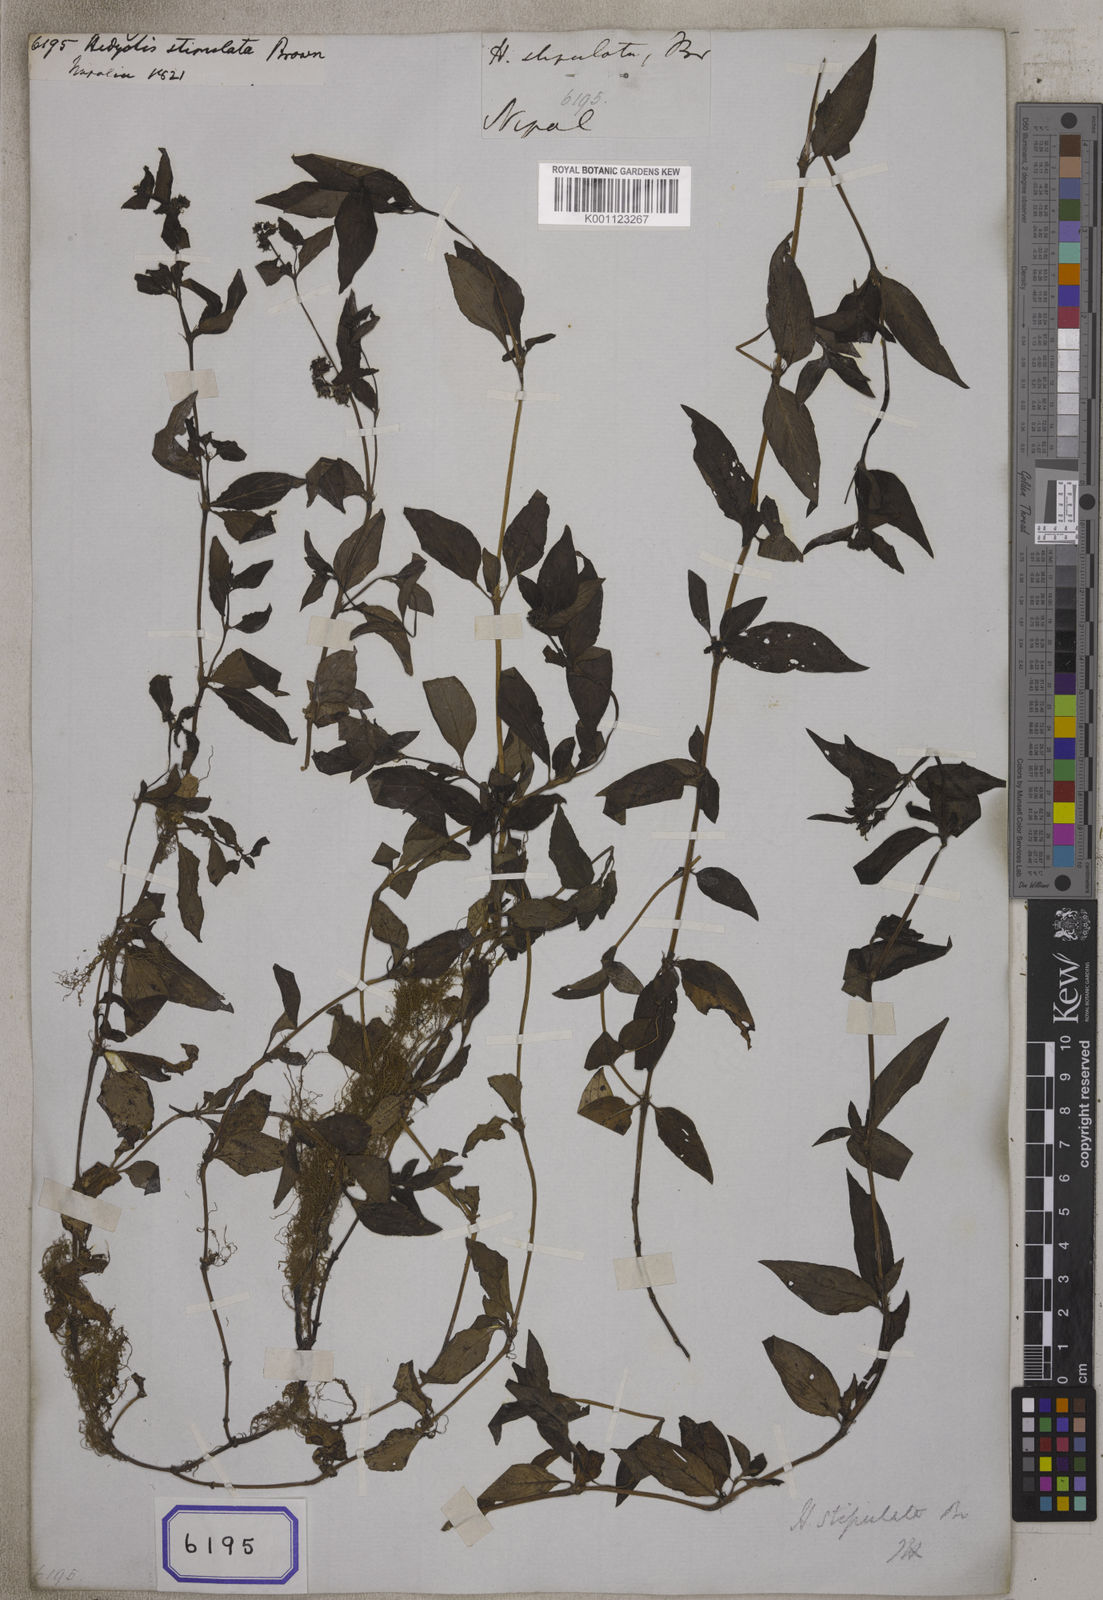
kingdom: Plantae
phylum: Tracheophyta
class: Magnoliopsida
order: Gentianales
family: Rubiaceae
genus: Hedyotis
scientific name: Hedyotis
